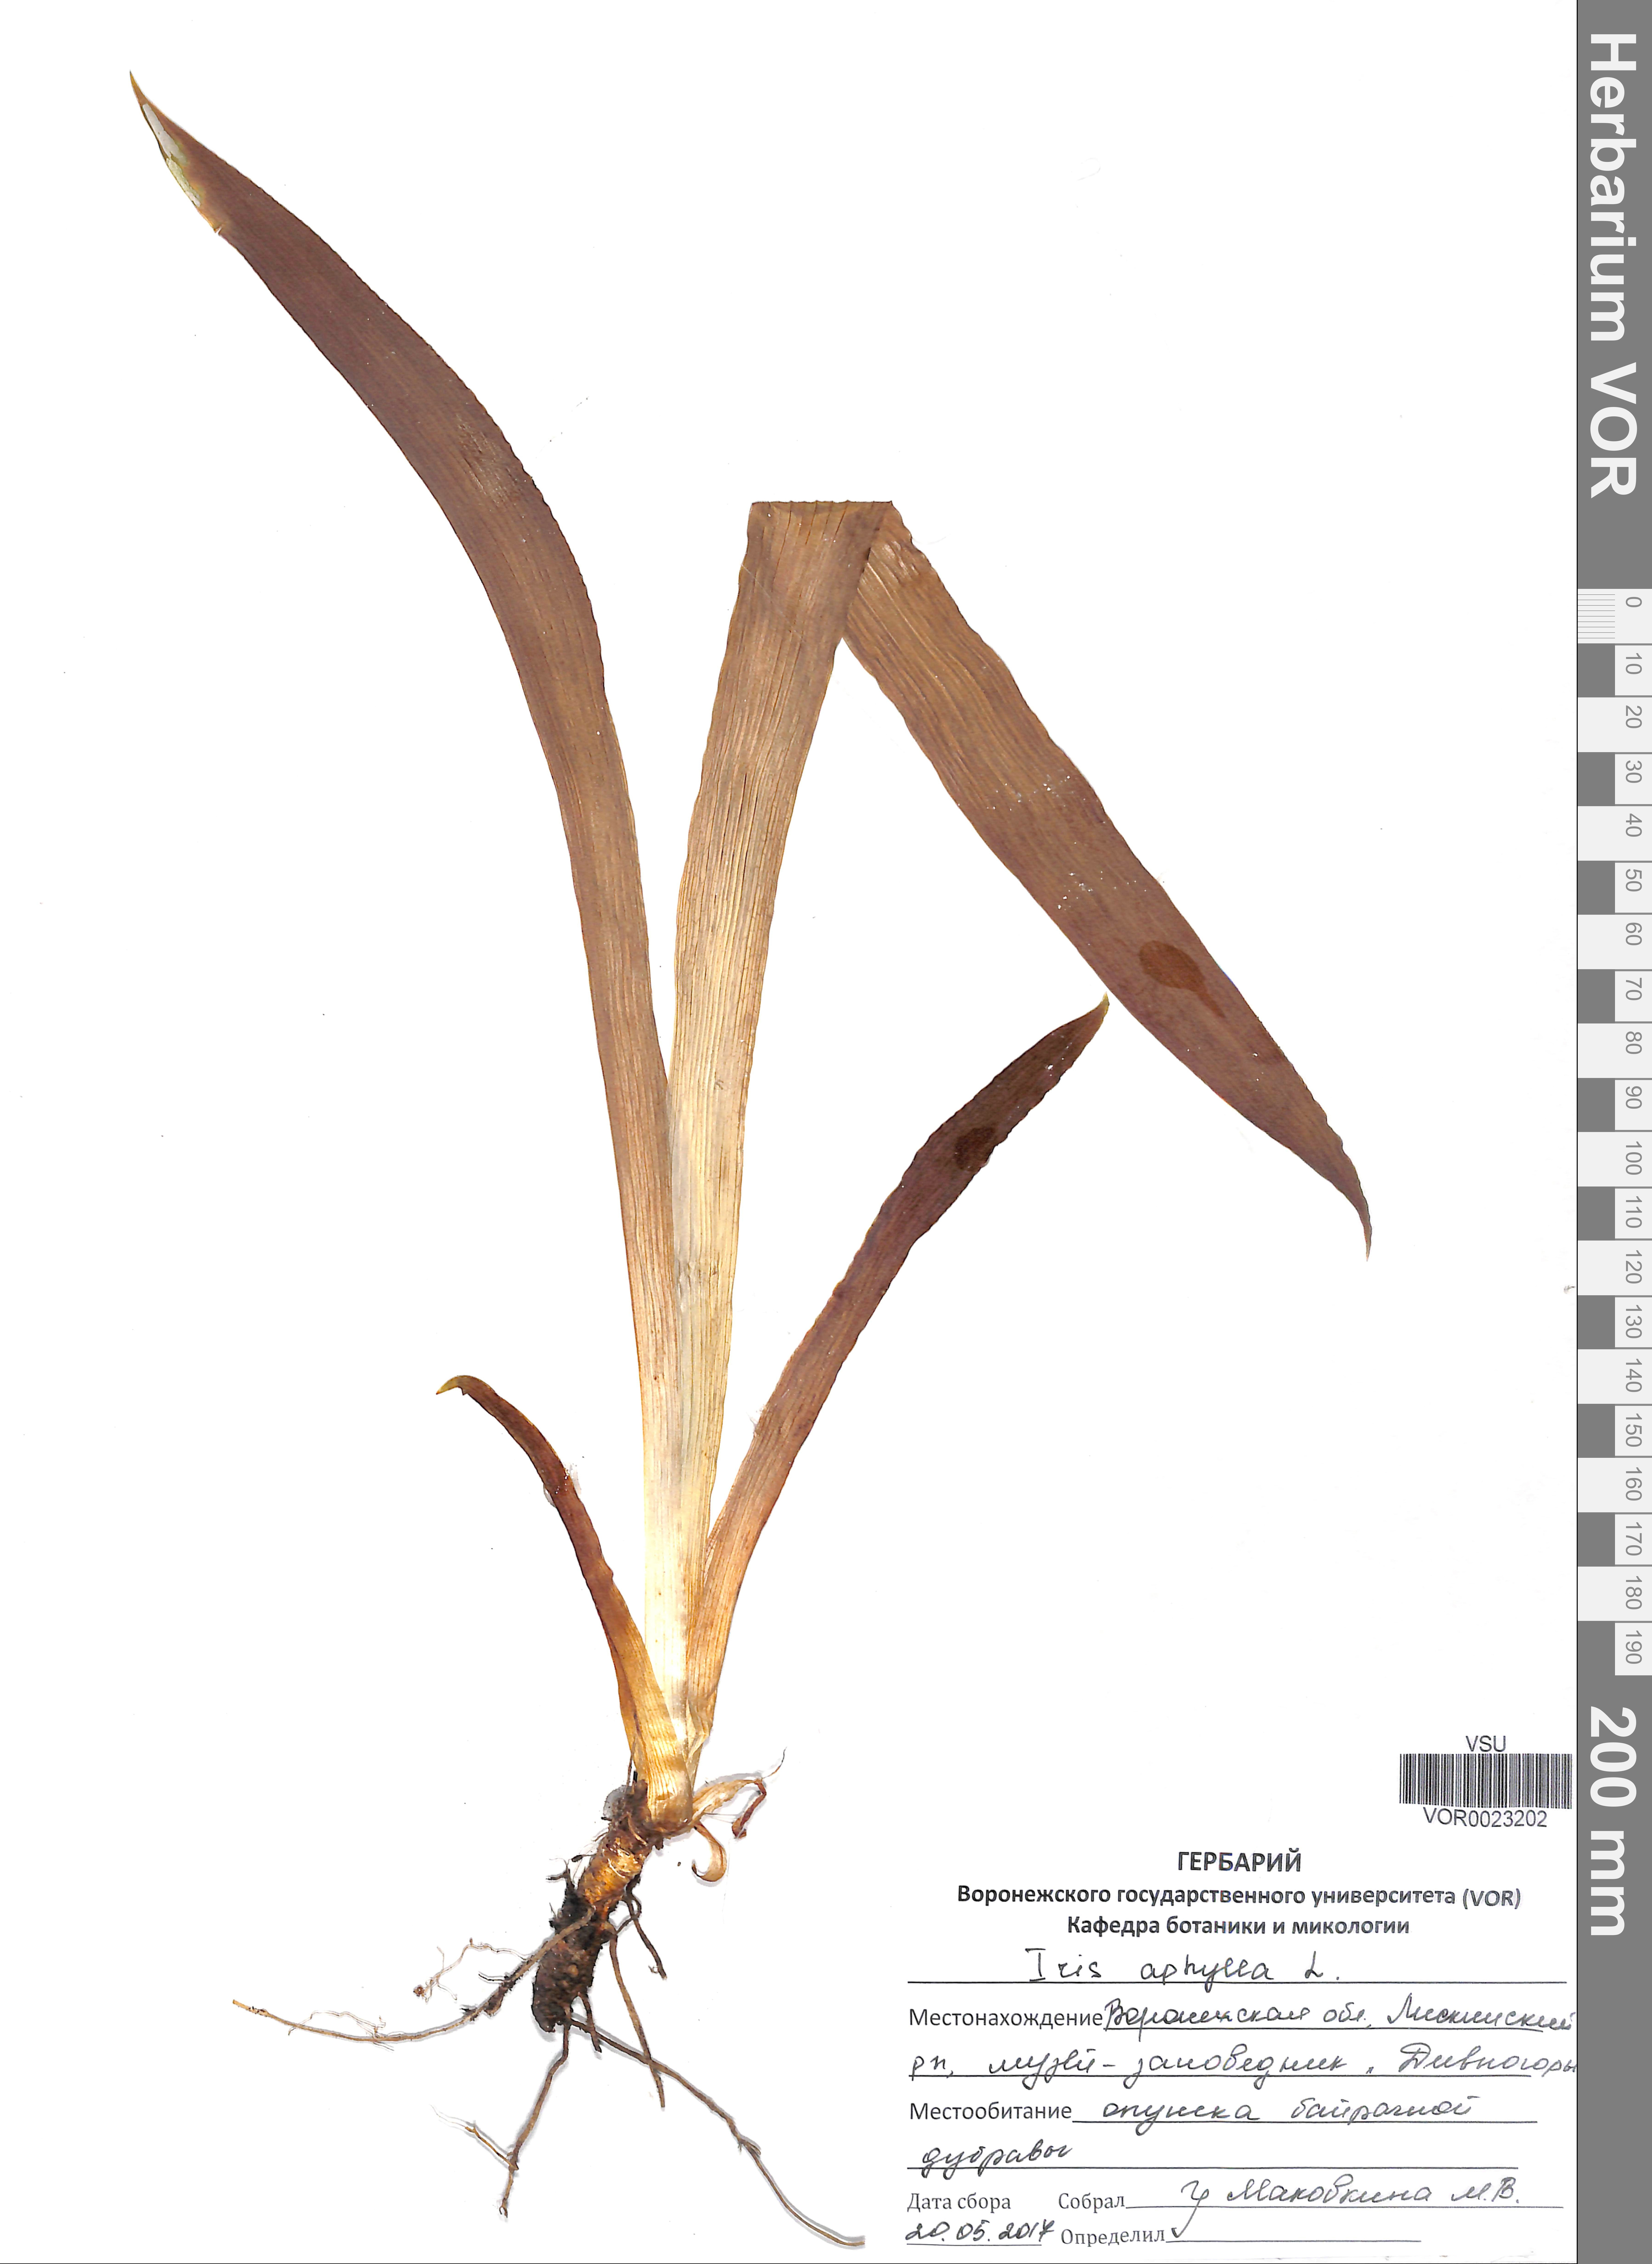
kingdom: Plantae
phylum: Tracheophyta
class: Liliopsida
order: Asparagales
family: Iridaceae
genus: Iris
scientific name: Iris aphylla
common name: Stool iris
